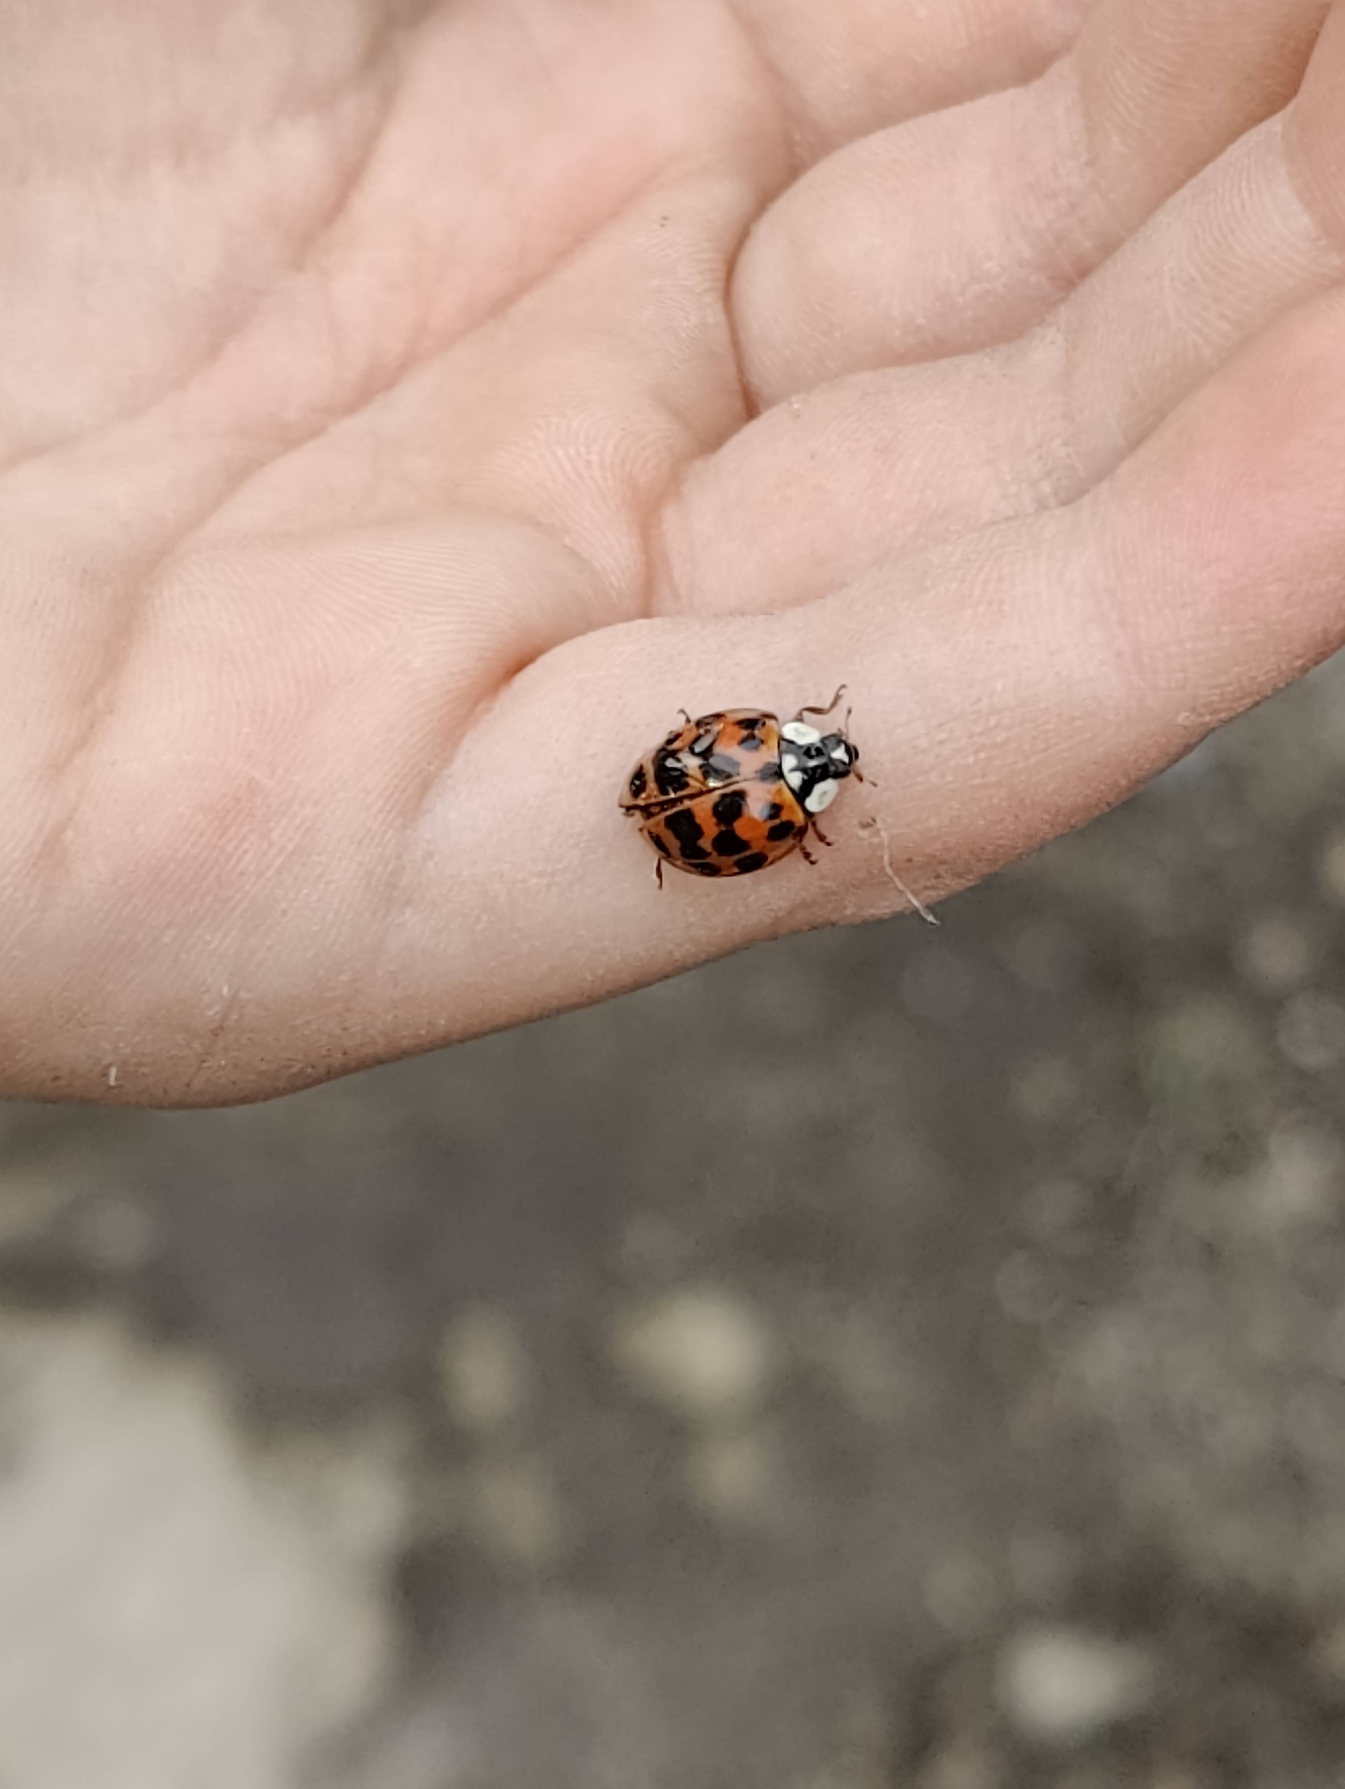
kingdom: Animalia
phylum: Arthropoda
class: Insecta
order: Coleoptera
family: Coccinellidae
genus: Harmonia
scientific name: Harmonia axyridis
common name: Harlekinmariehøne
